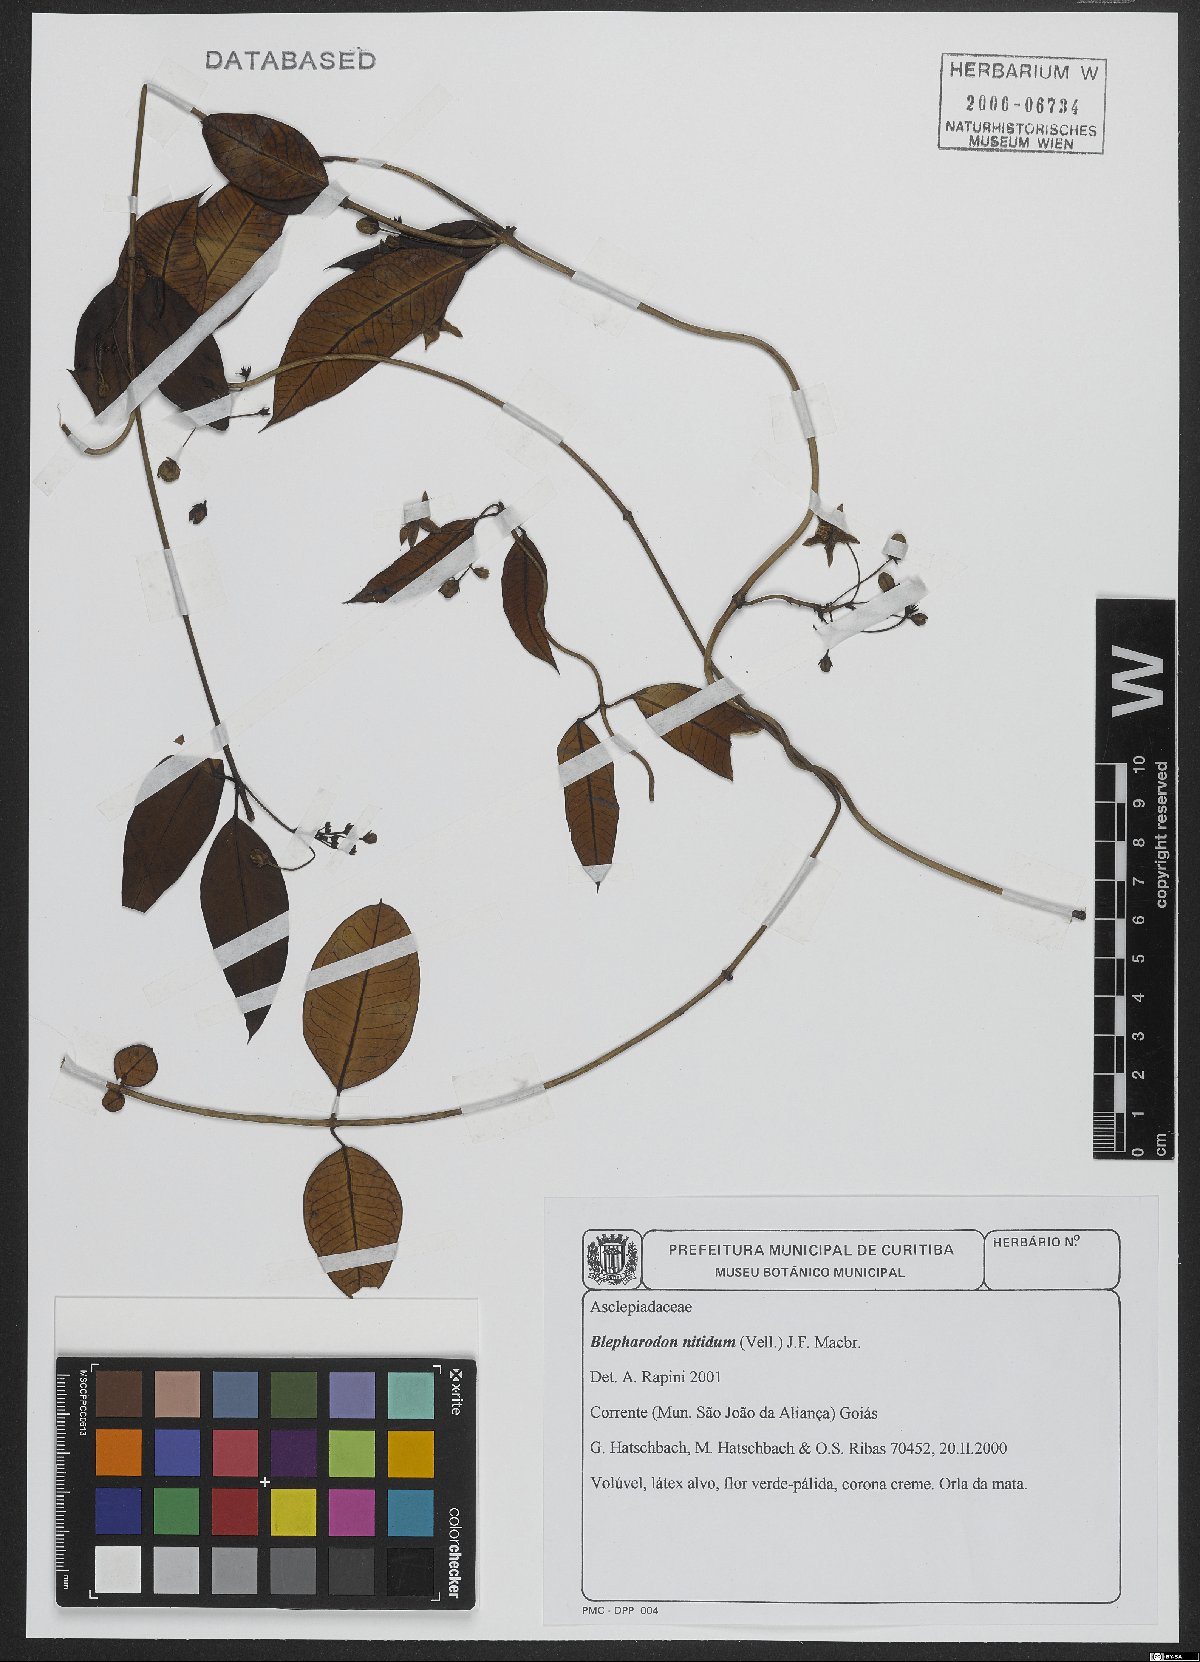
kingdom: Plantae
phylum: Tracheophyta
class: Magnoliopsida
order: Gentianales
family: Apocynaceae
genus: Blepharodon
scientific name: Blepharodon pictum
